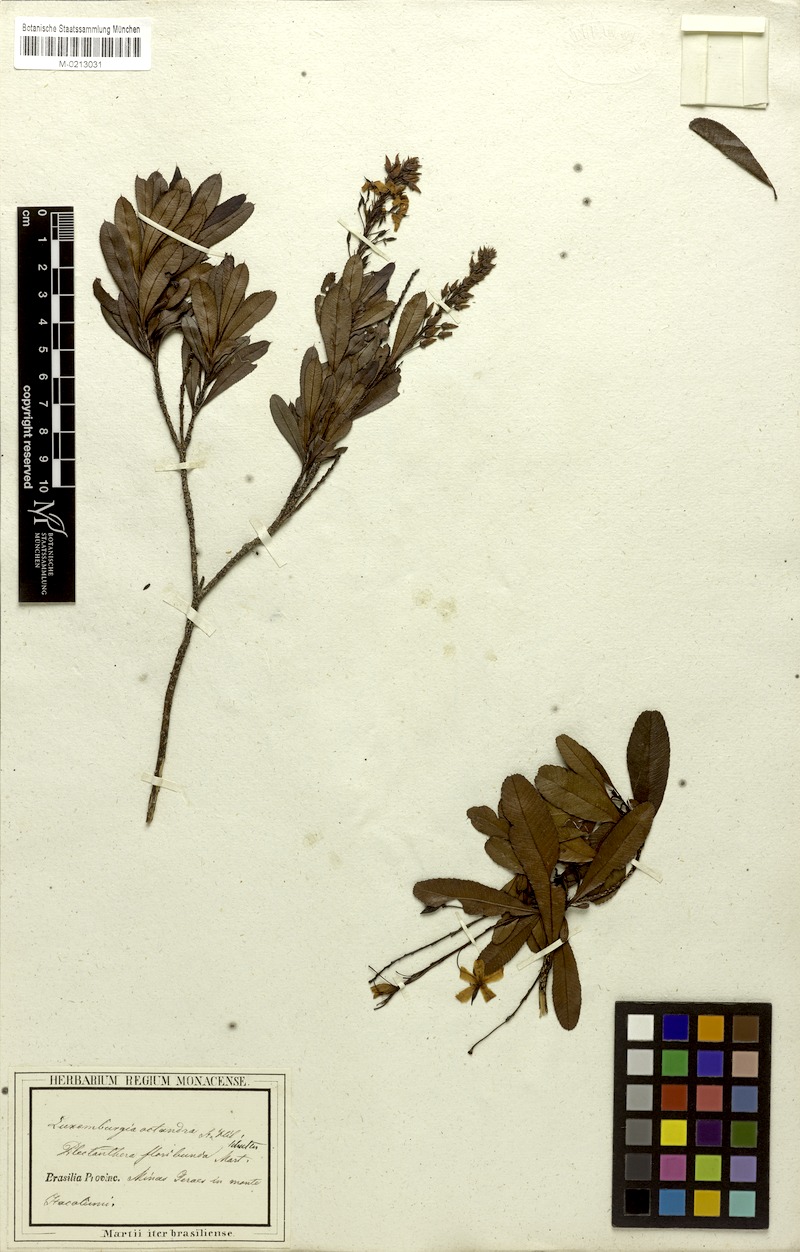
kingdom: Plantae
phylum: Tracheophyta
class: Magnoliopsida
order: Malpighiales
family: Ochnaceae
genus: Luxemburgia
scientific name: Luxemburgia octandra
